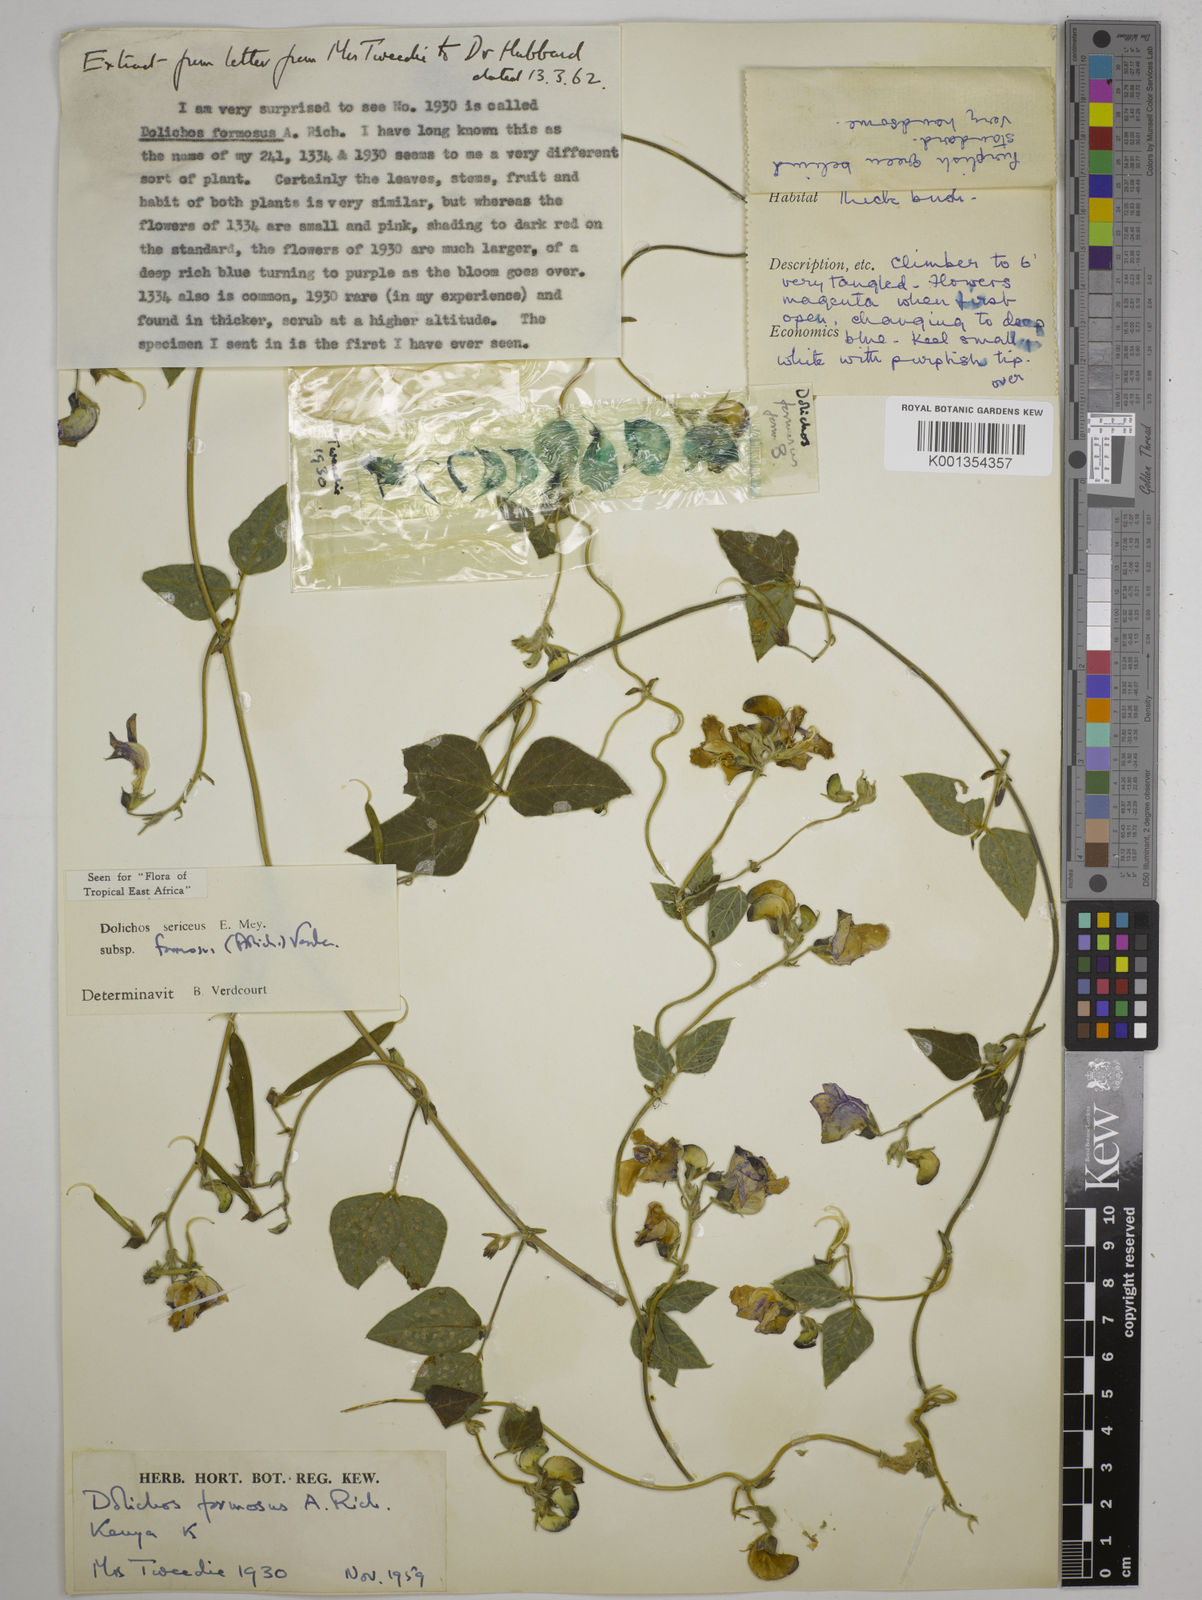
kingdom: Plantae
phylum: Tracheophyta
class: Magnoliopsida
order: Fabales
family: Fabaceae
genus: Dolichos
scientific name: Dolichos
